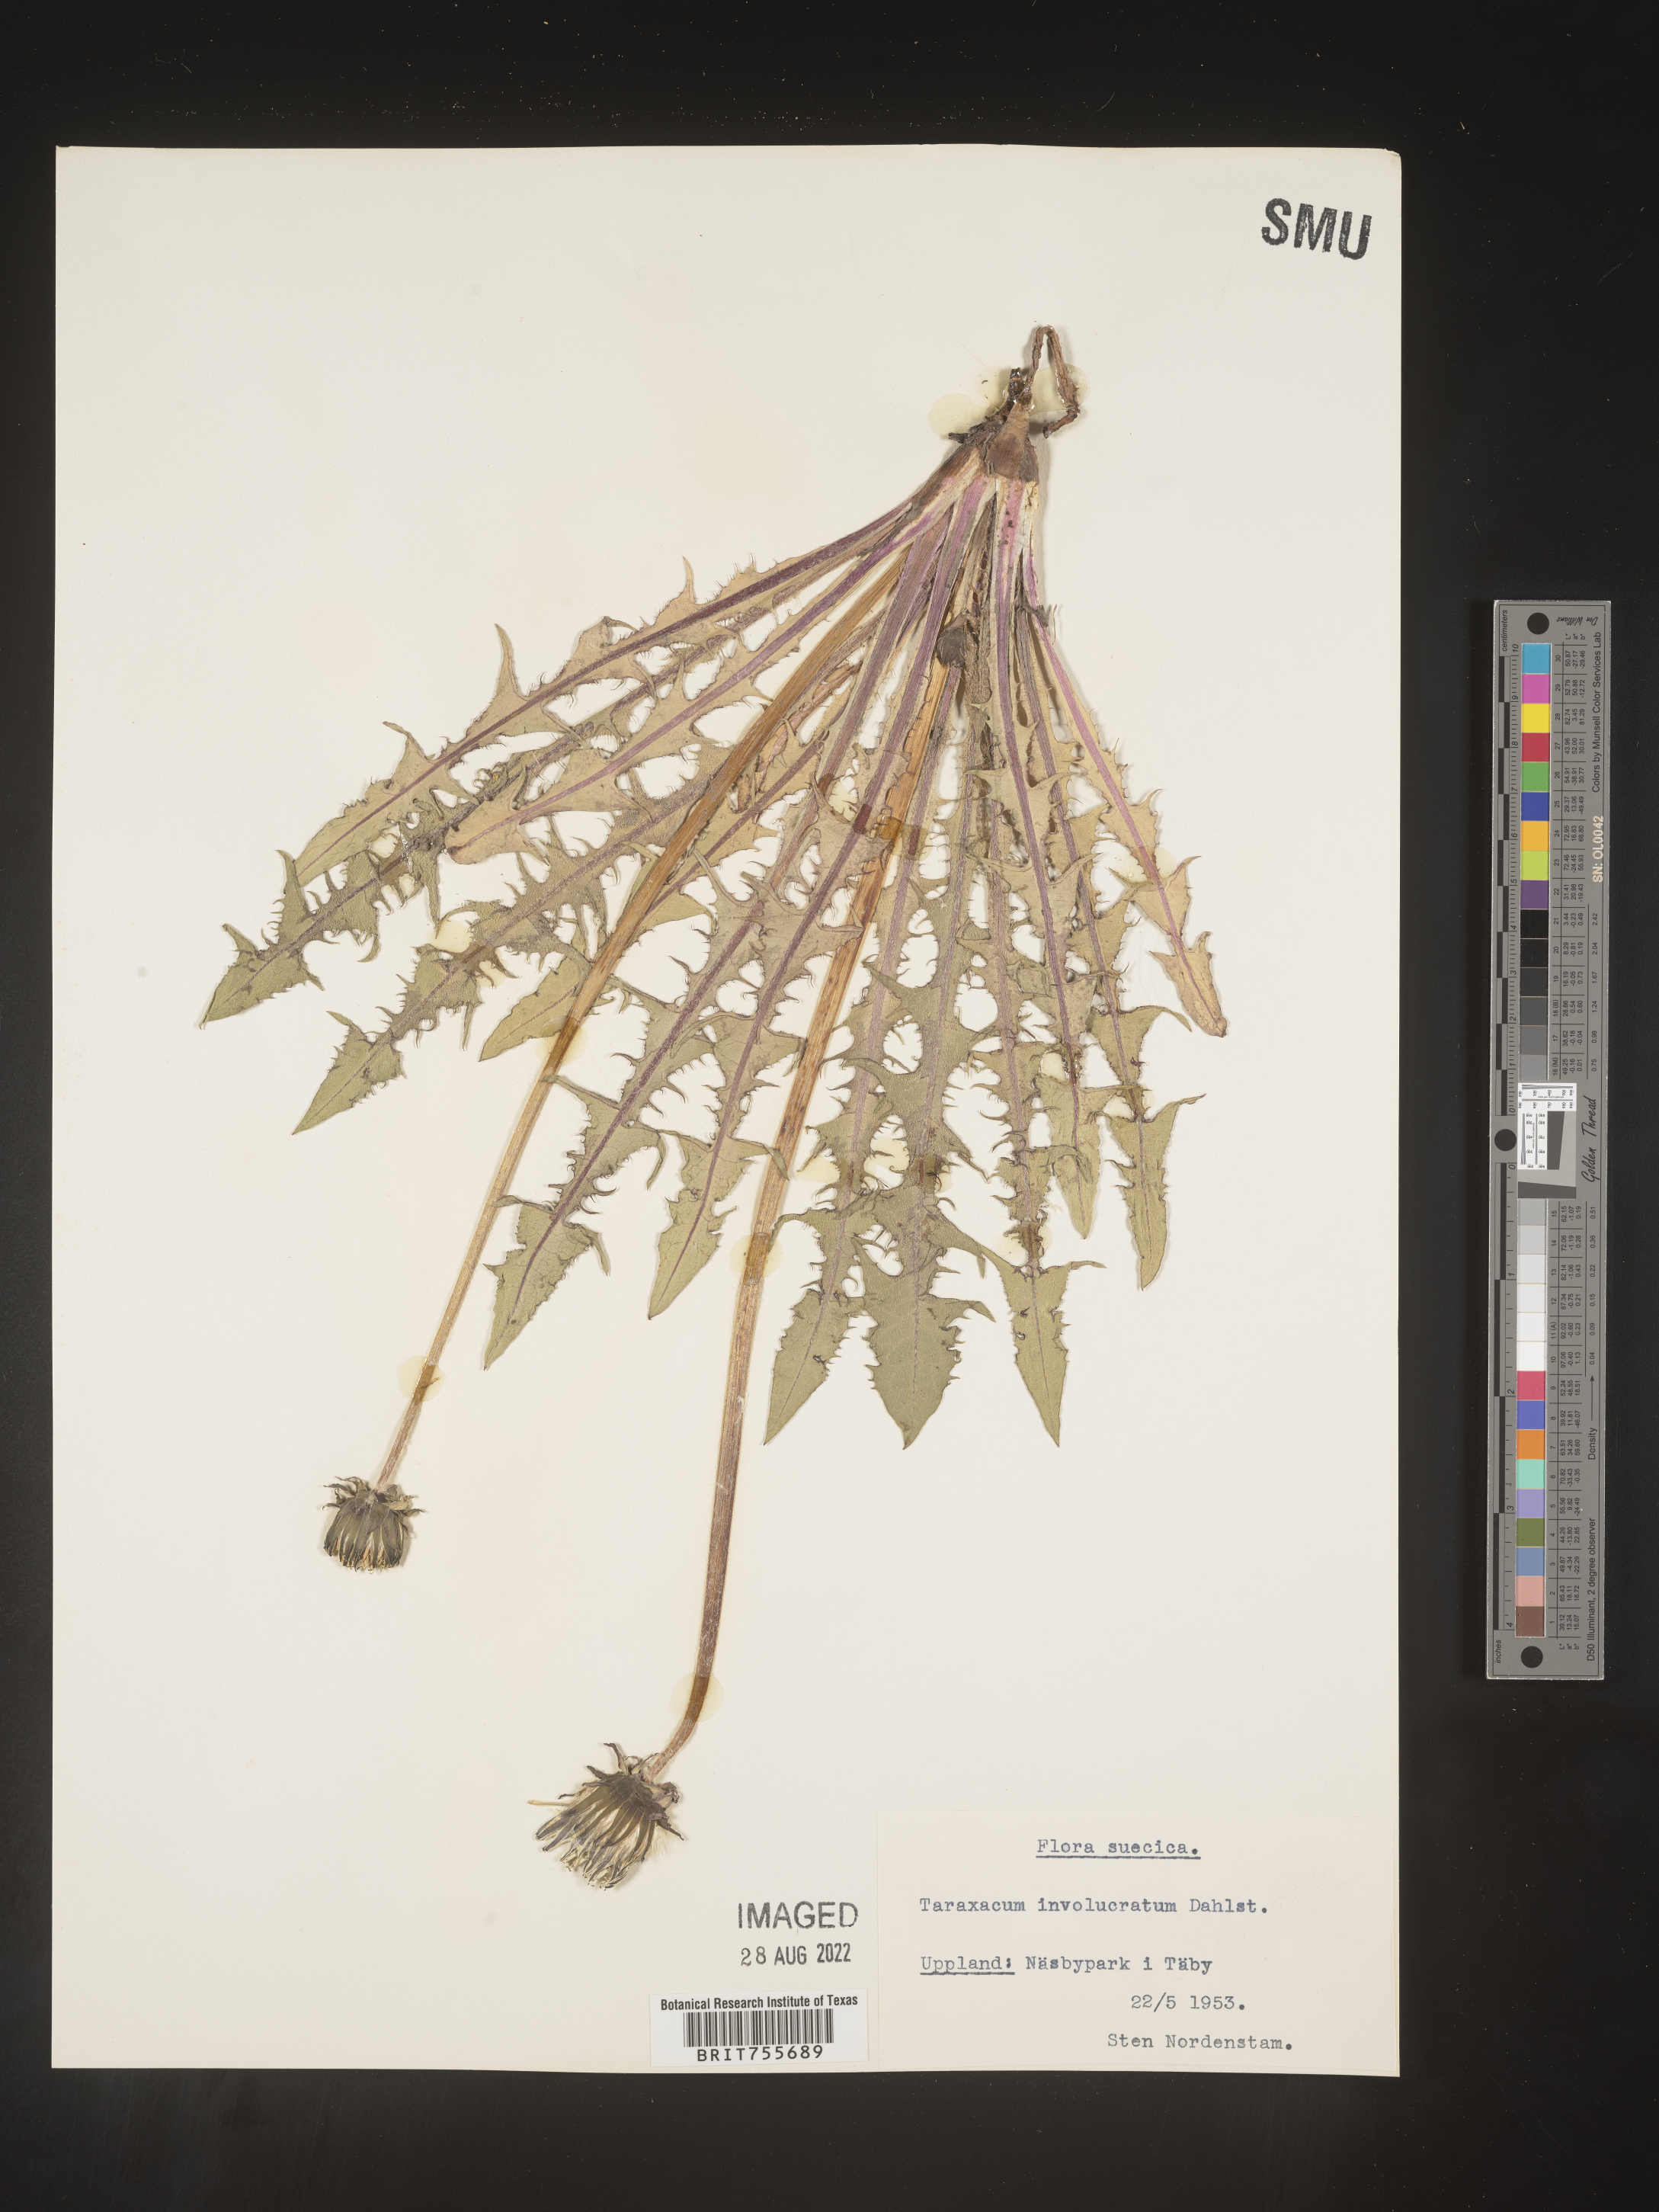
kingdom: Plantae
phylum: Tracheophyta
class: Magnoliopsida
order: Asterales
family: Asteraceae
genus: Taraxacum
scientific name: Taraxacum
